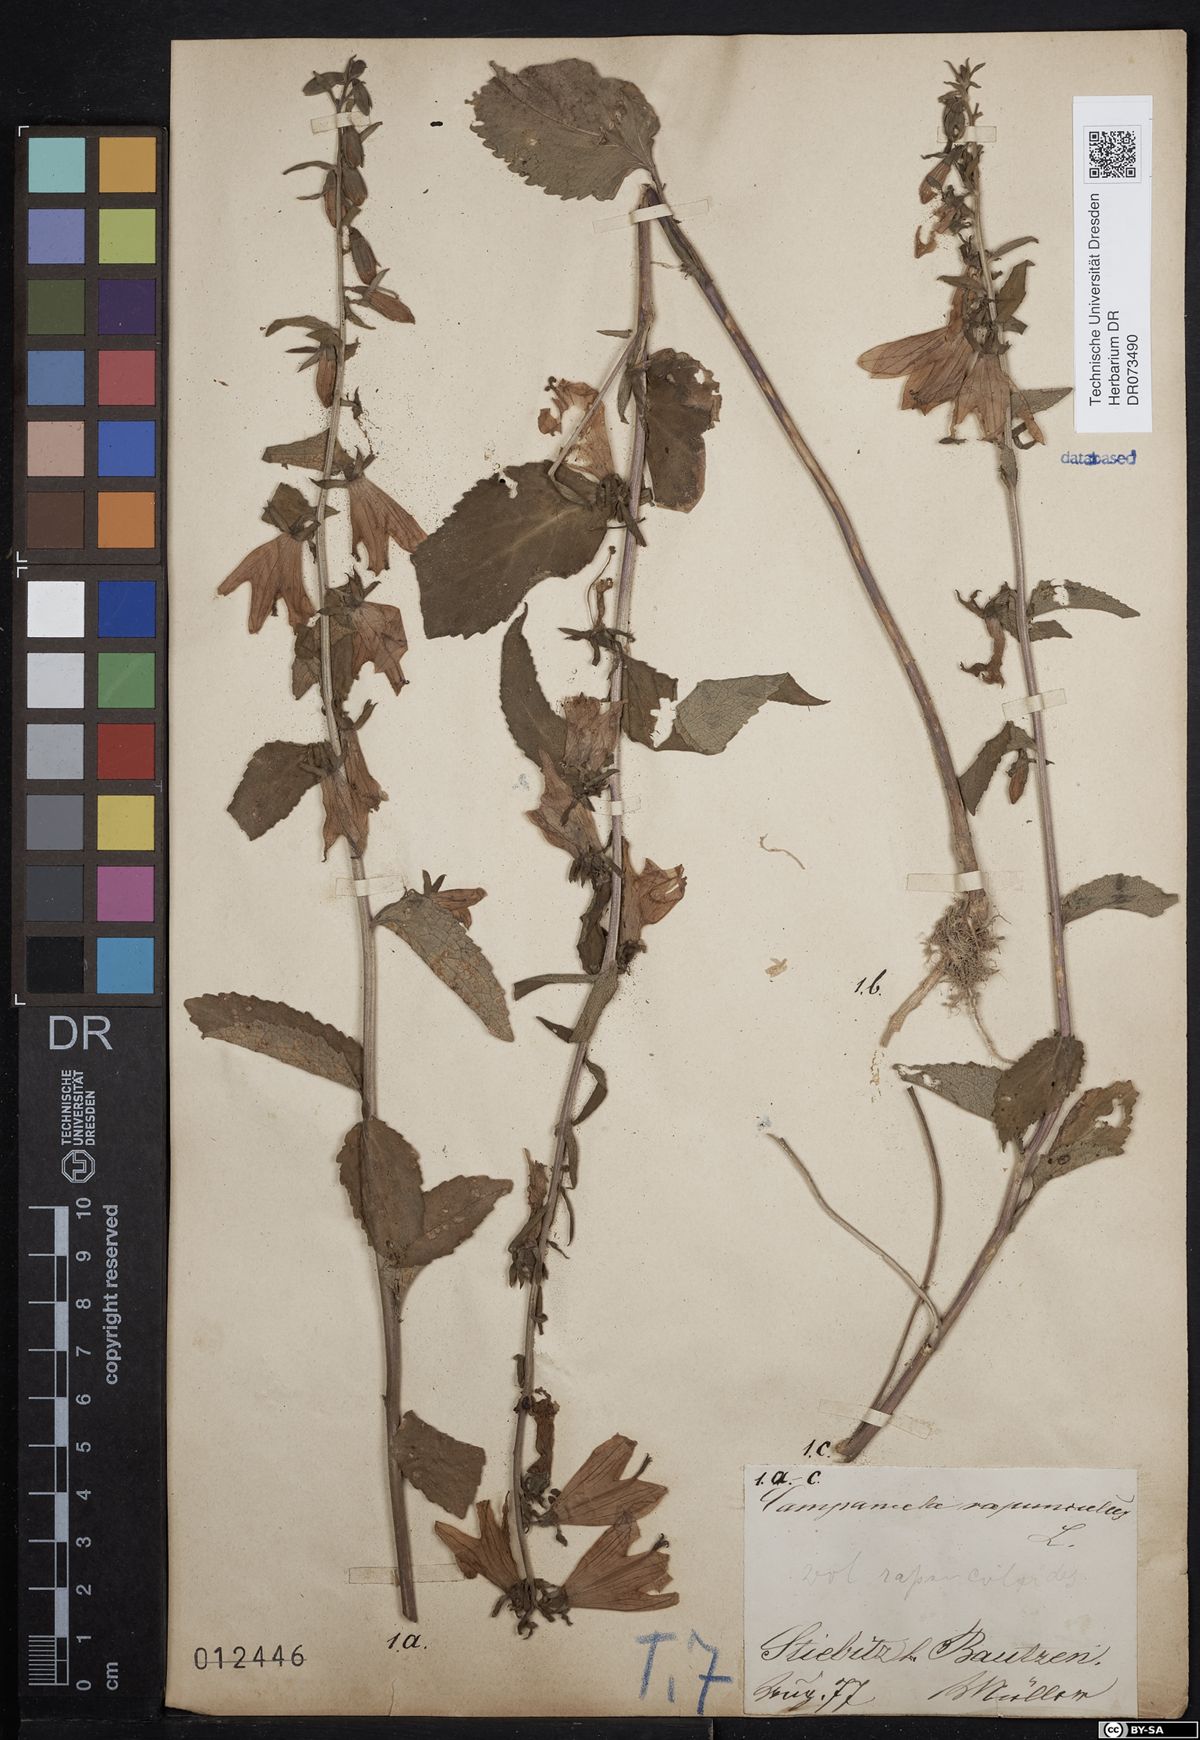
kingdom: Plantae
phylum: Tracheophyta
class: Magnoliopsida
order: Asterales
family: Campanulaceae
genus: Campanula
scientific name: Campanula rapunculoides
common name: Creeping bellflower
